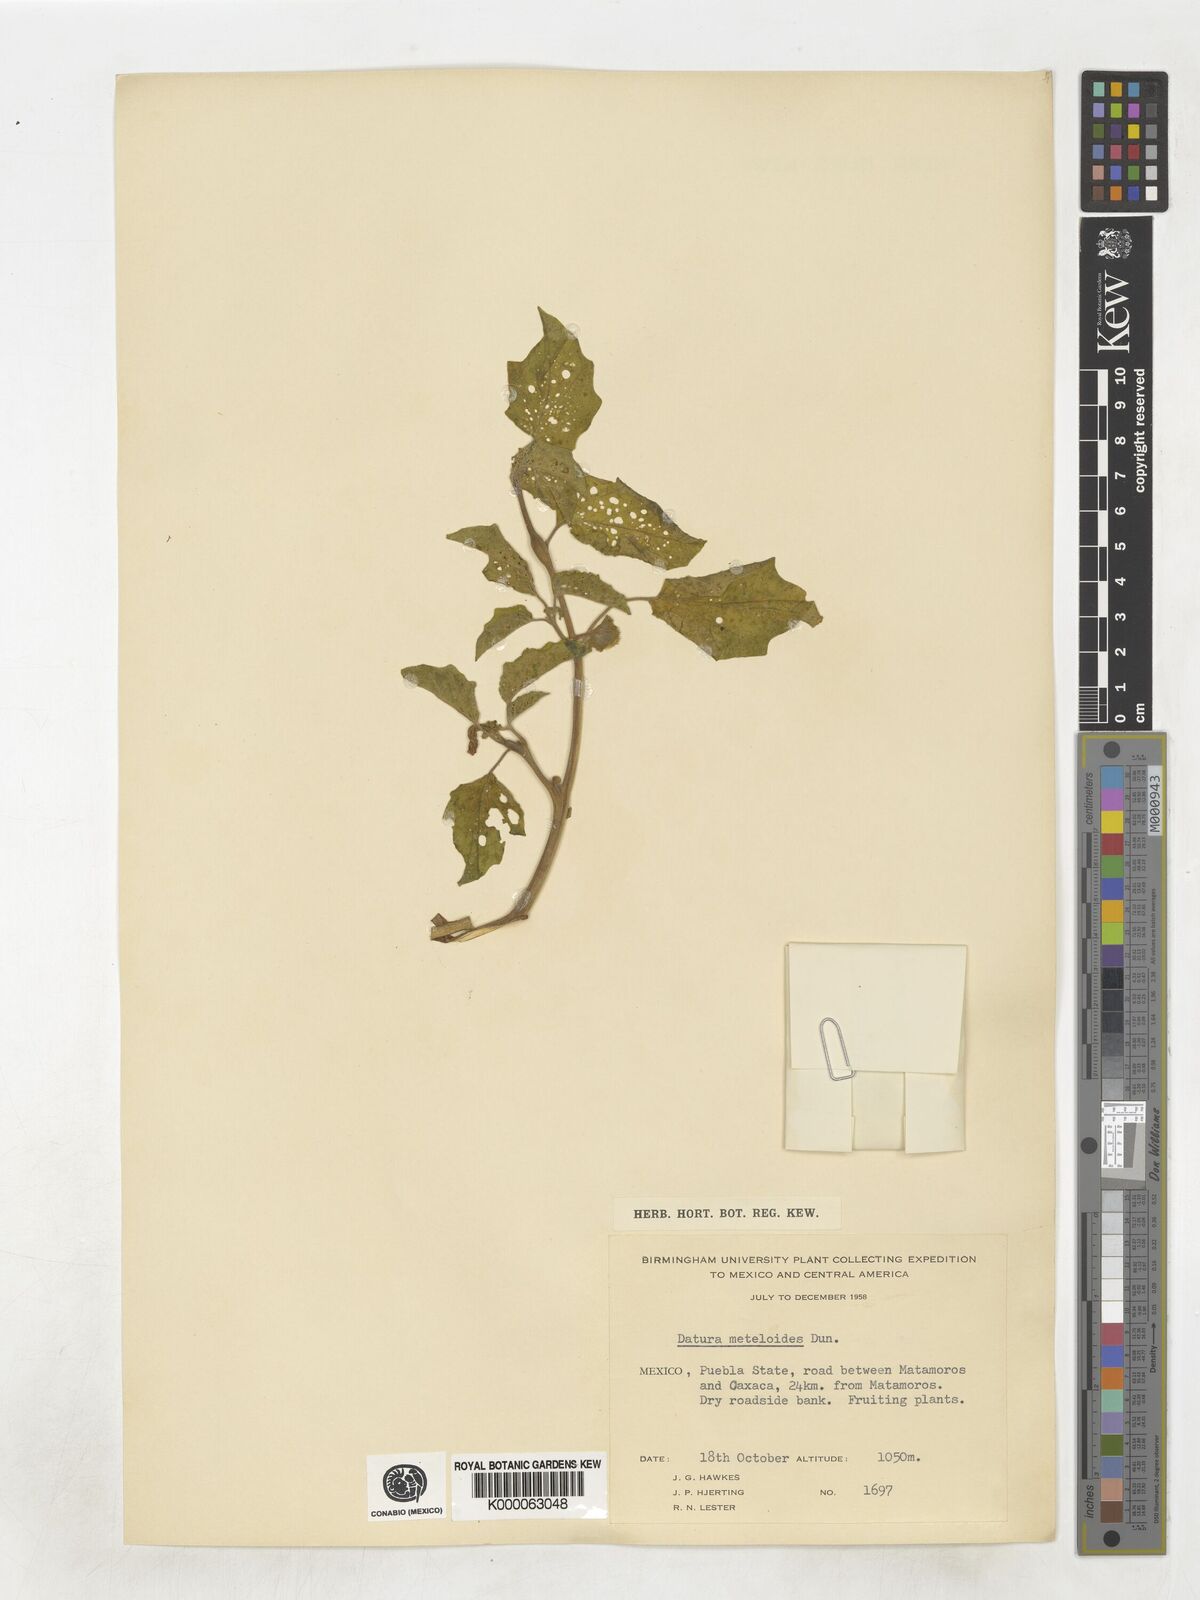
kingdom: Plantae
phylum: Tracheophyta
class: Magnoliopsida
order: Solanales
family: Solanaceae
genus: Datura
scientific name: Datura innoxia
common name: Downy thorn-apple
